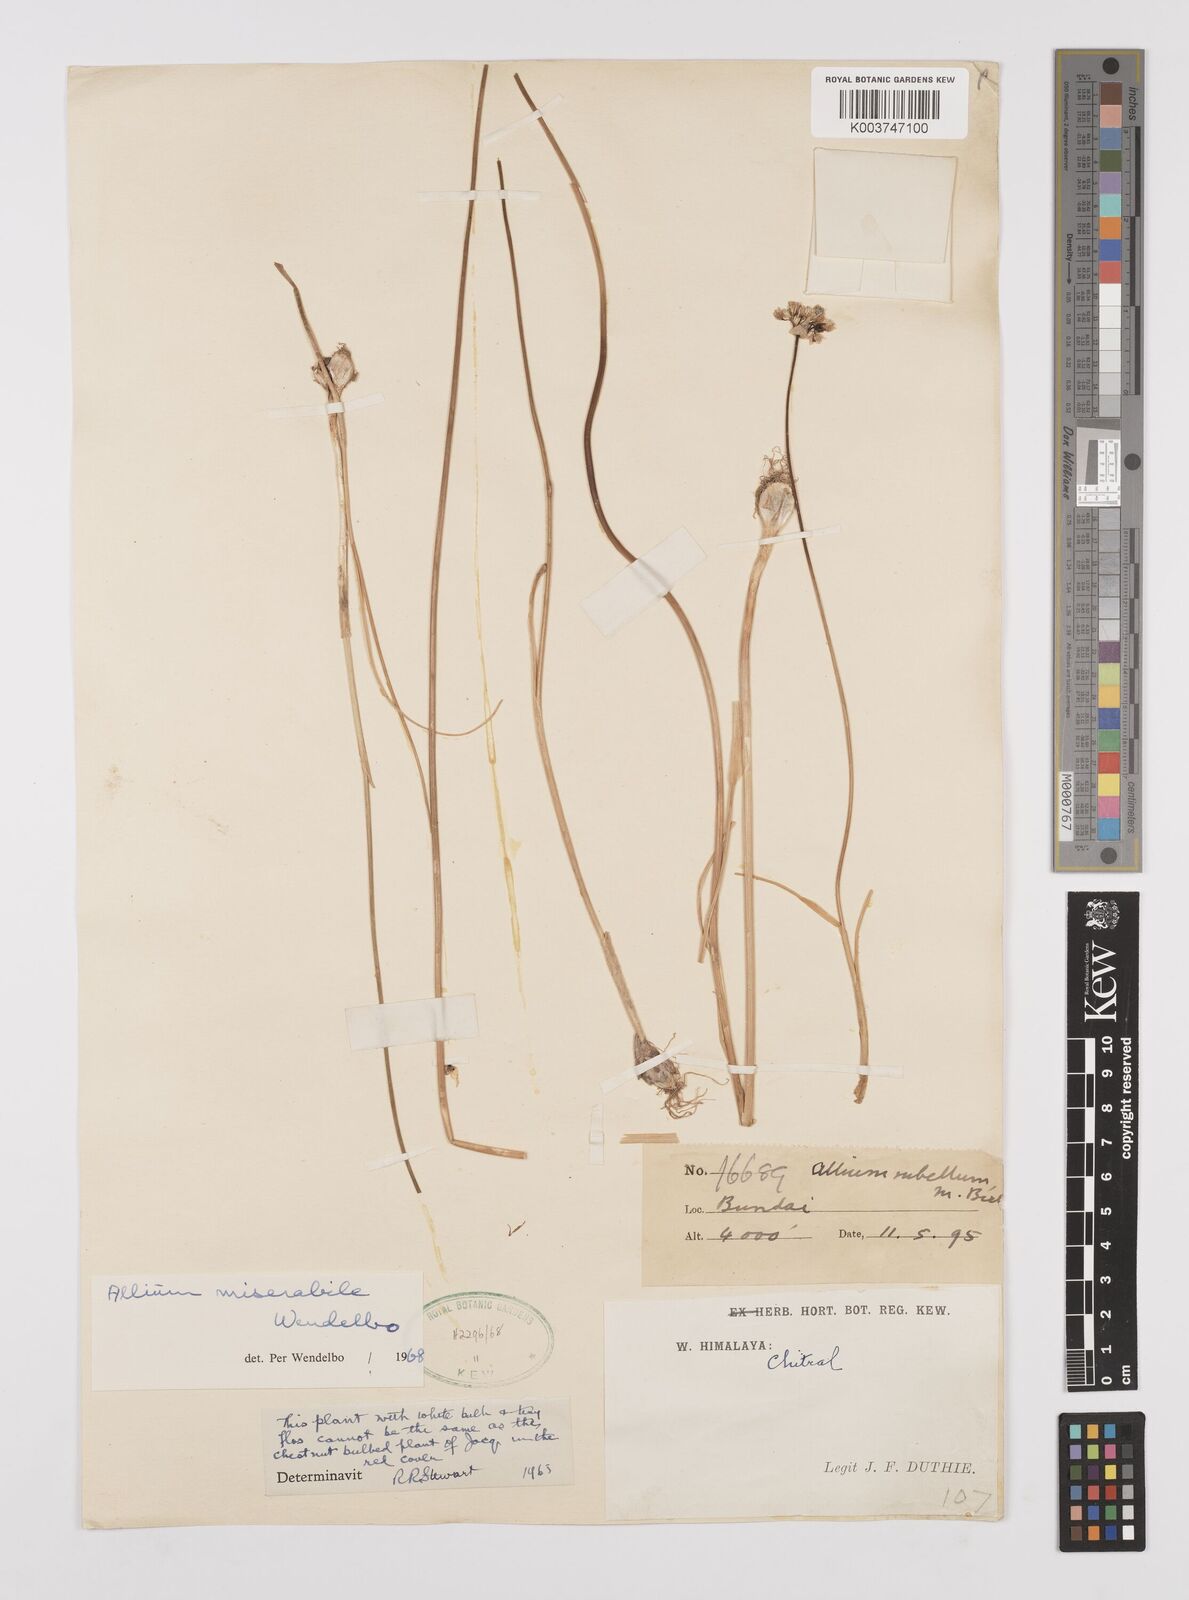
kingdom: Plantae
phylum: Tracheophyta
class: Liliopsida
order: Asparagales
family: Amaryllidaceae
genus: Allium
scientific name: Allium jacquemontii
